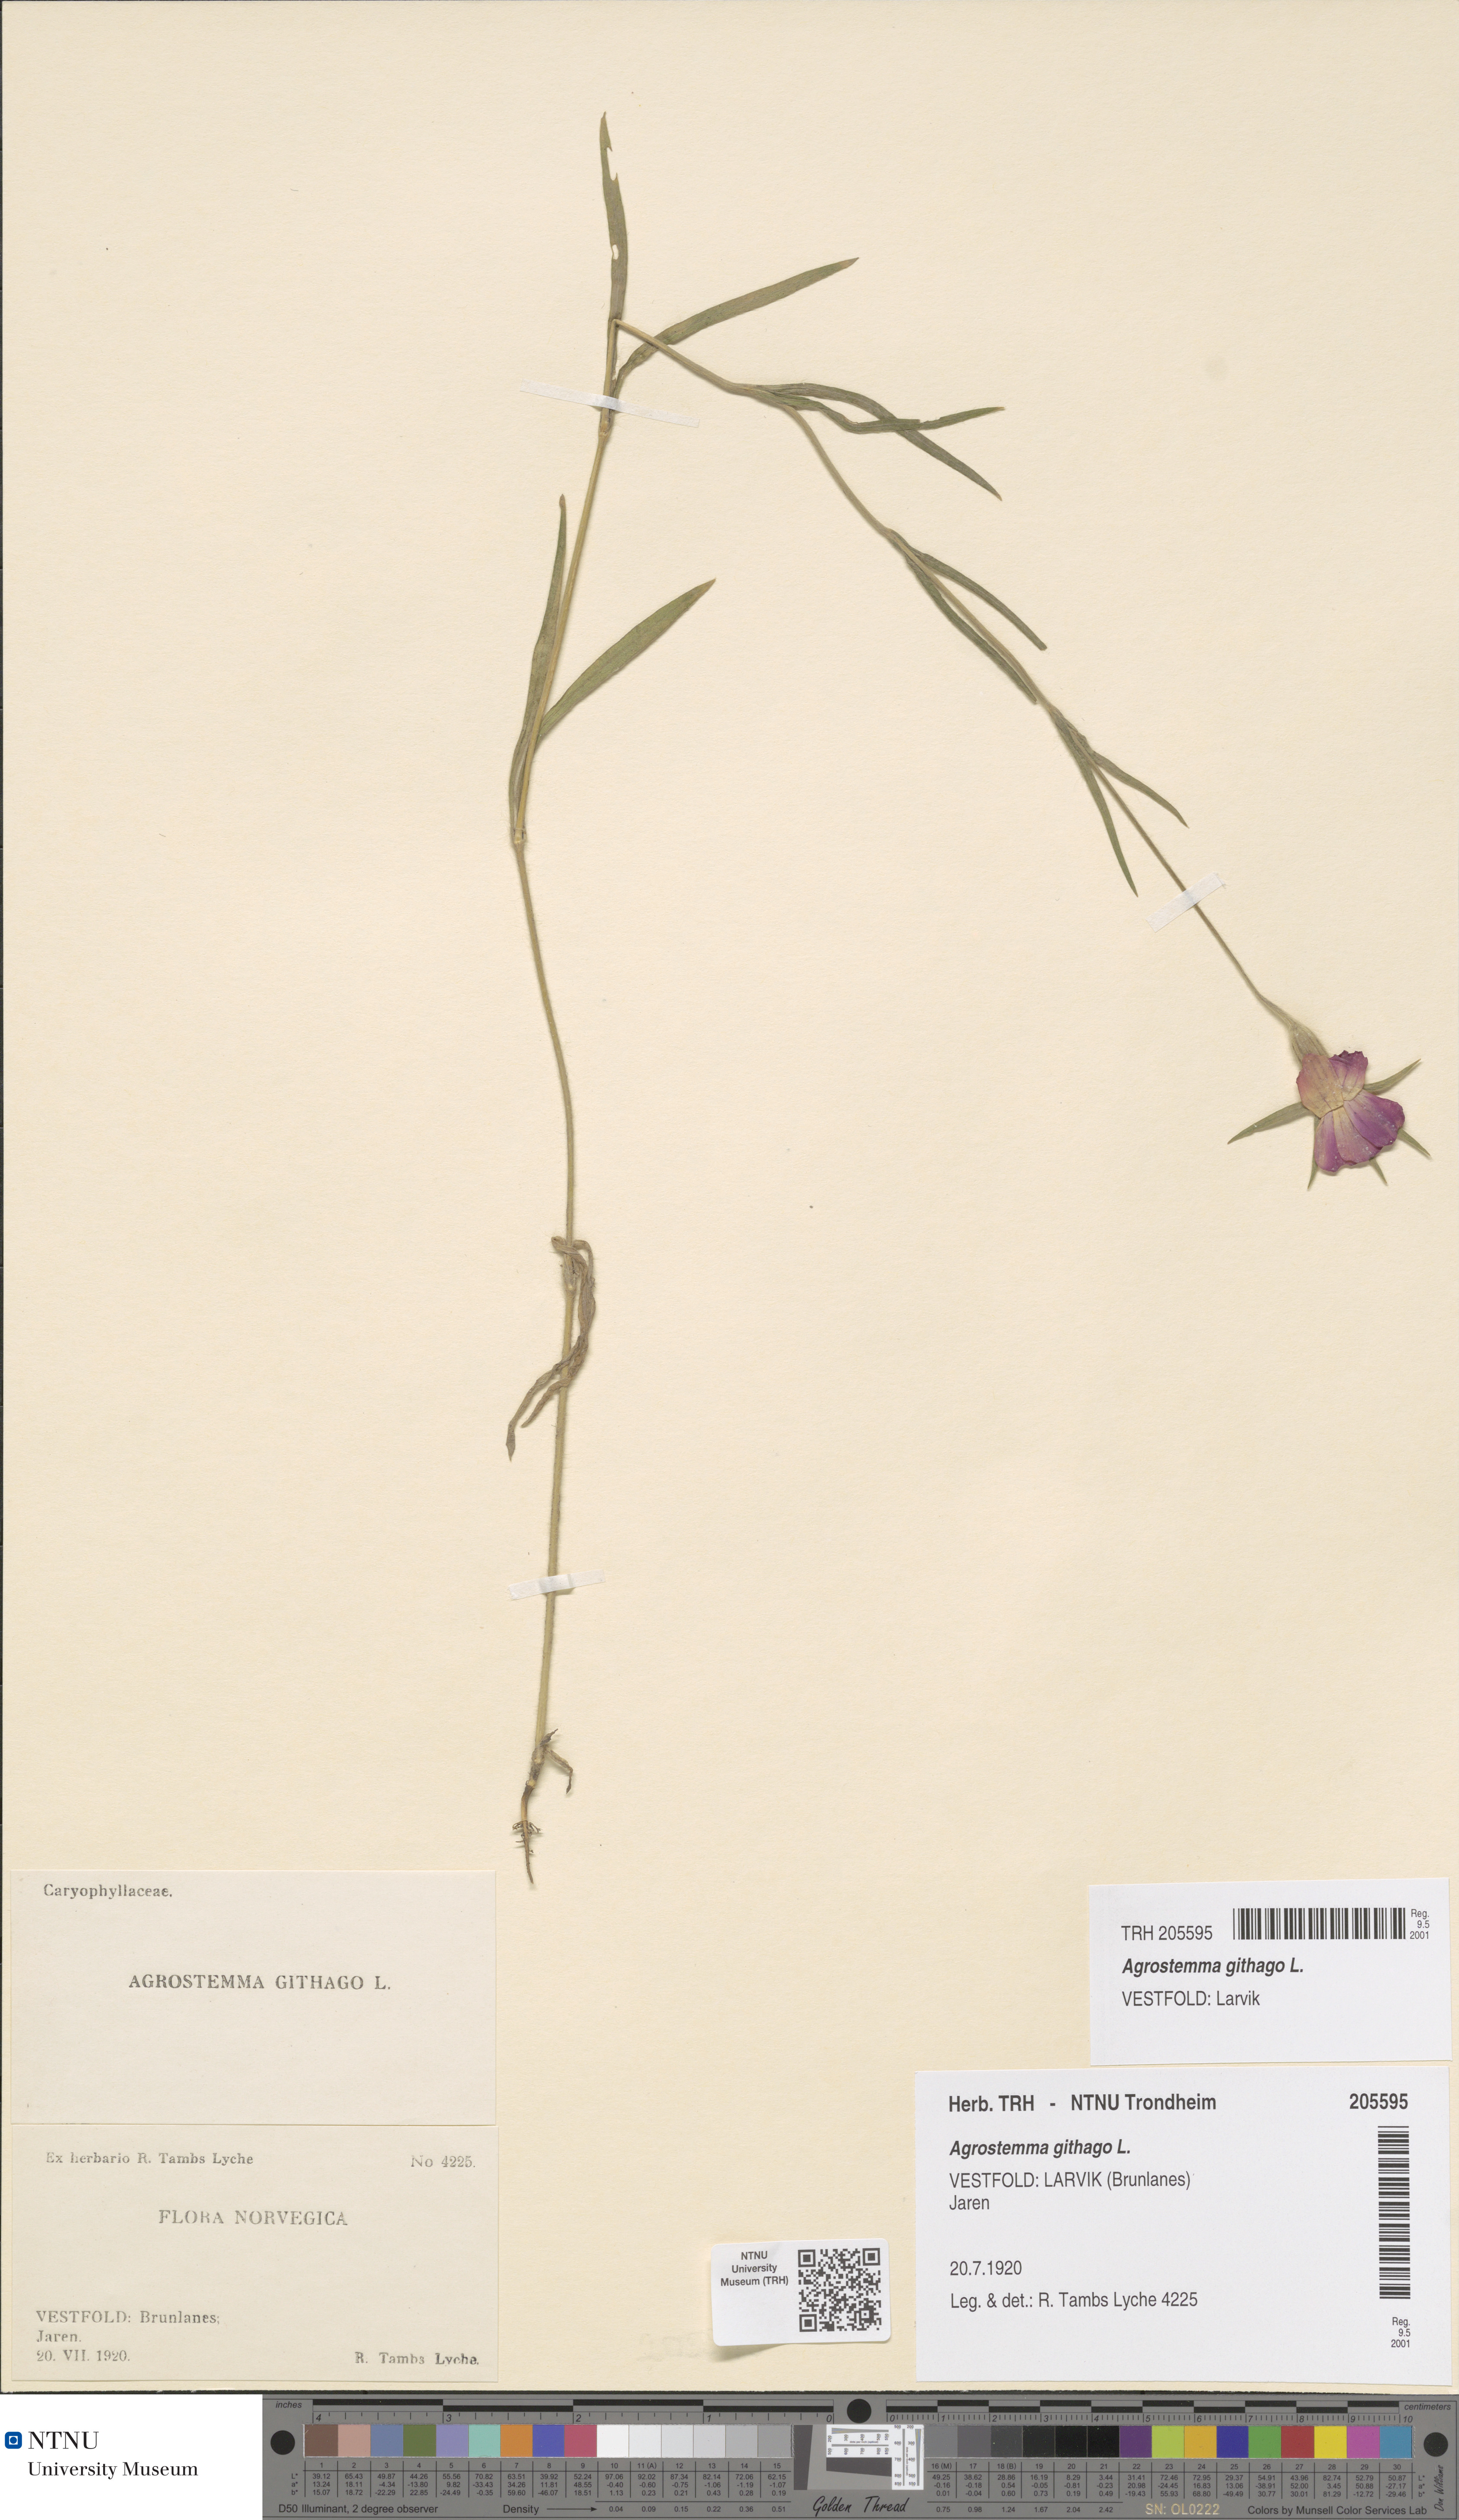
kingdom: Plantae
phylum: Tracheophyta
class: Magnoliopsida
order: Caryophyllales
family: Caryophyllaceae
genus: Agrostemma
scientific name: Agrostemma githago
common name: Common corncockle
